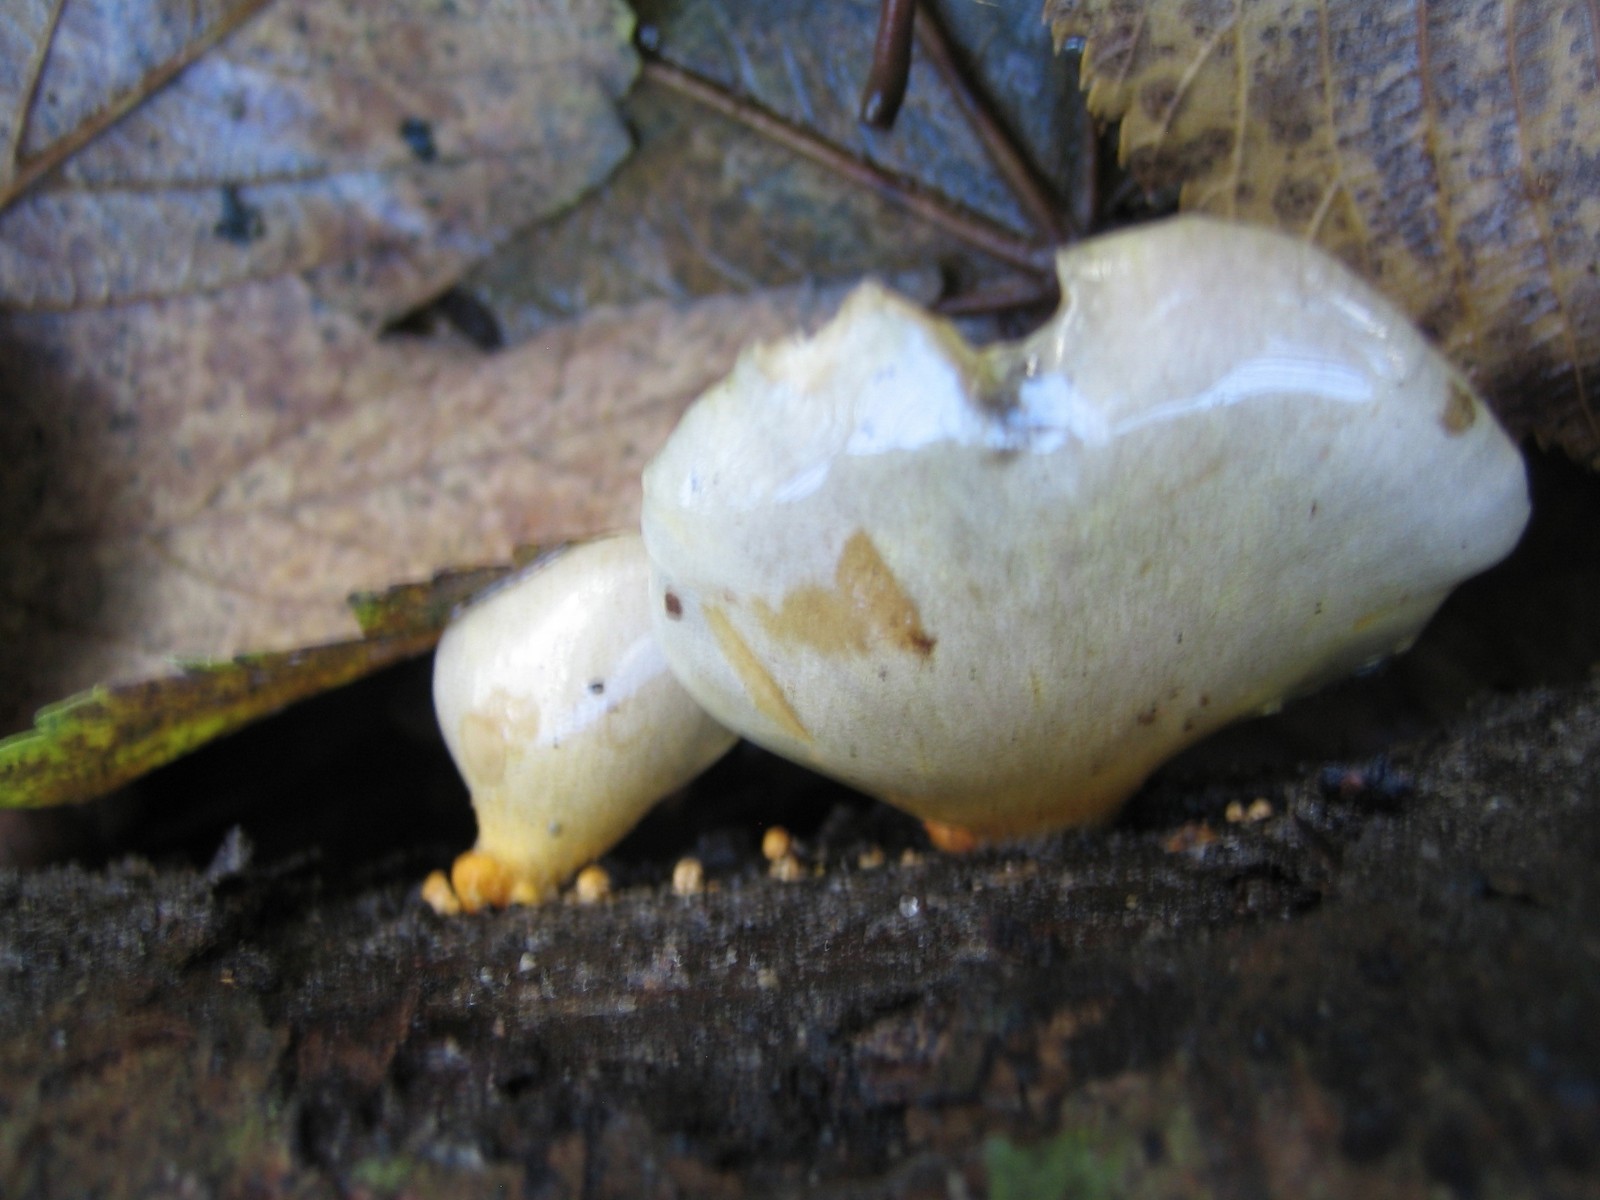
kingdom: Fungi
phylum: Basidiomycota
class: Agaricomycetes
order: Agaricales
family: Sarcomyxaceae
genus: Sarcomyxa
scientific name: Sarcomyxa serotina
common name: gummihat
